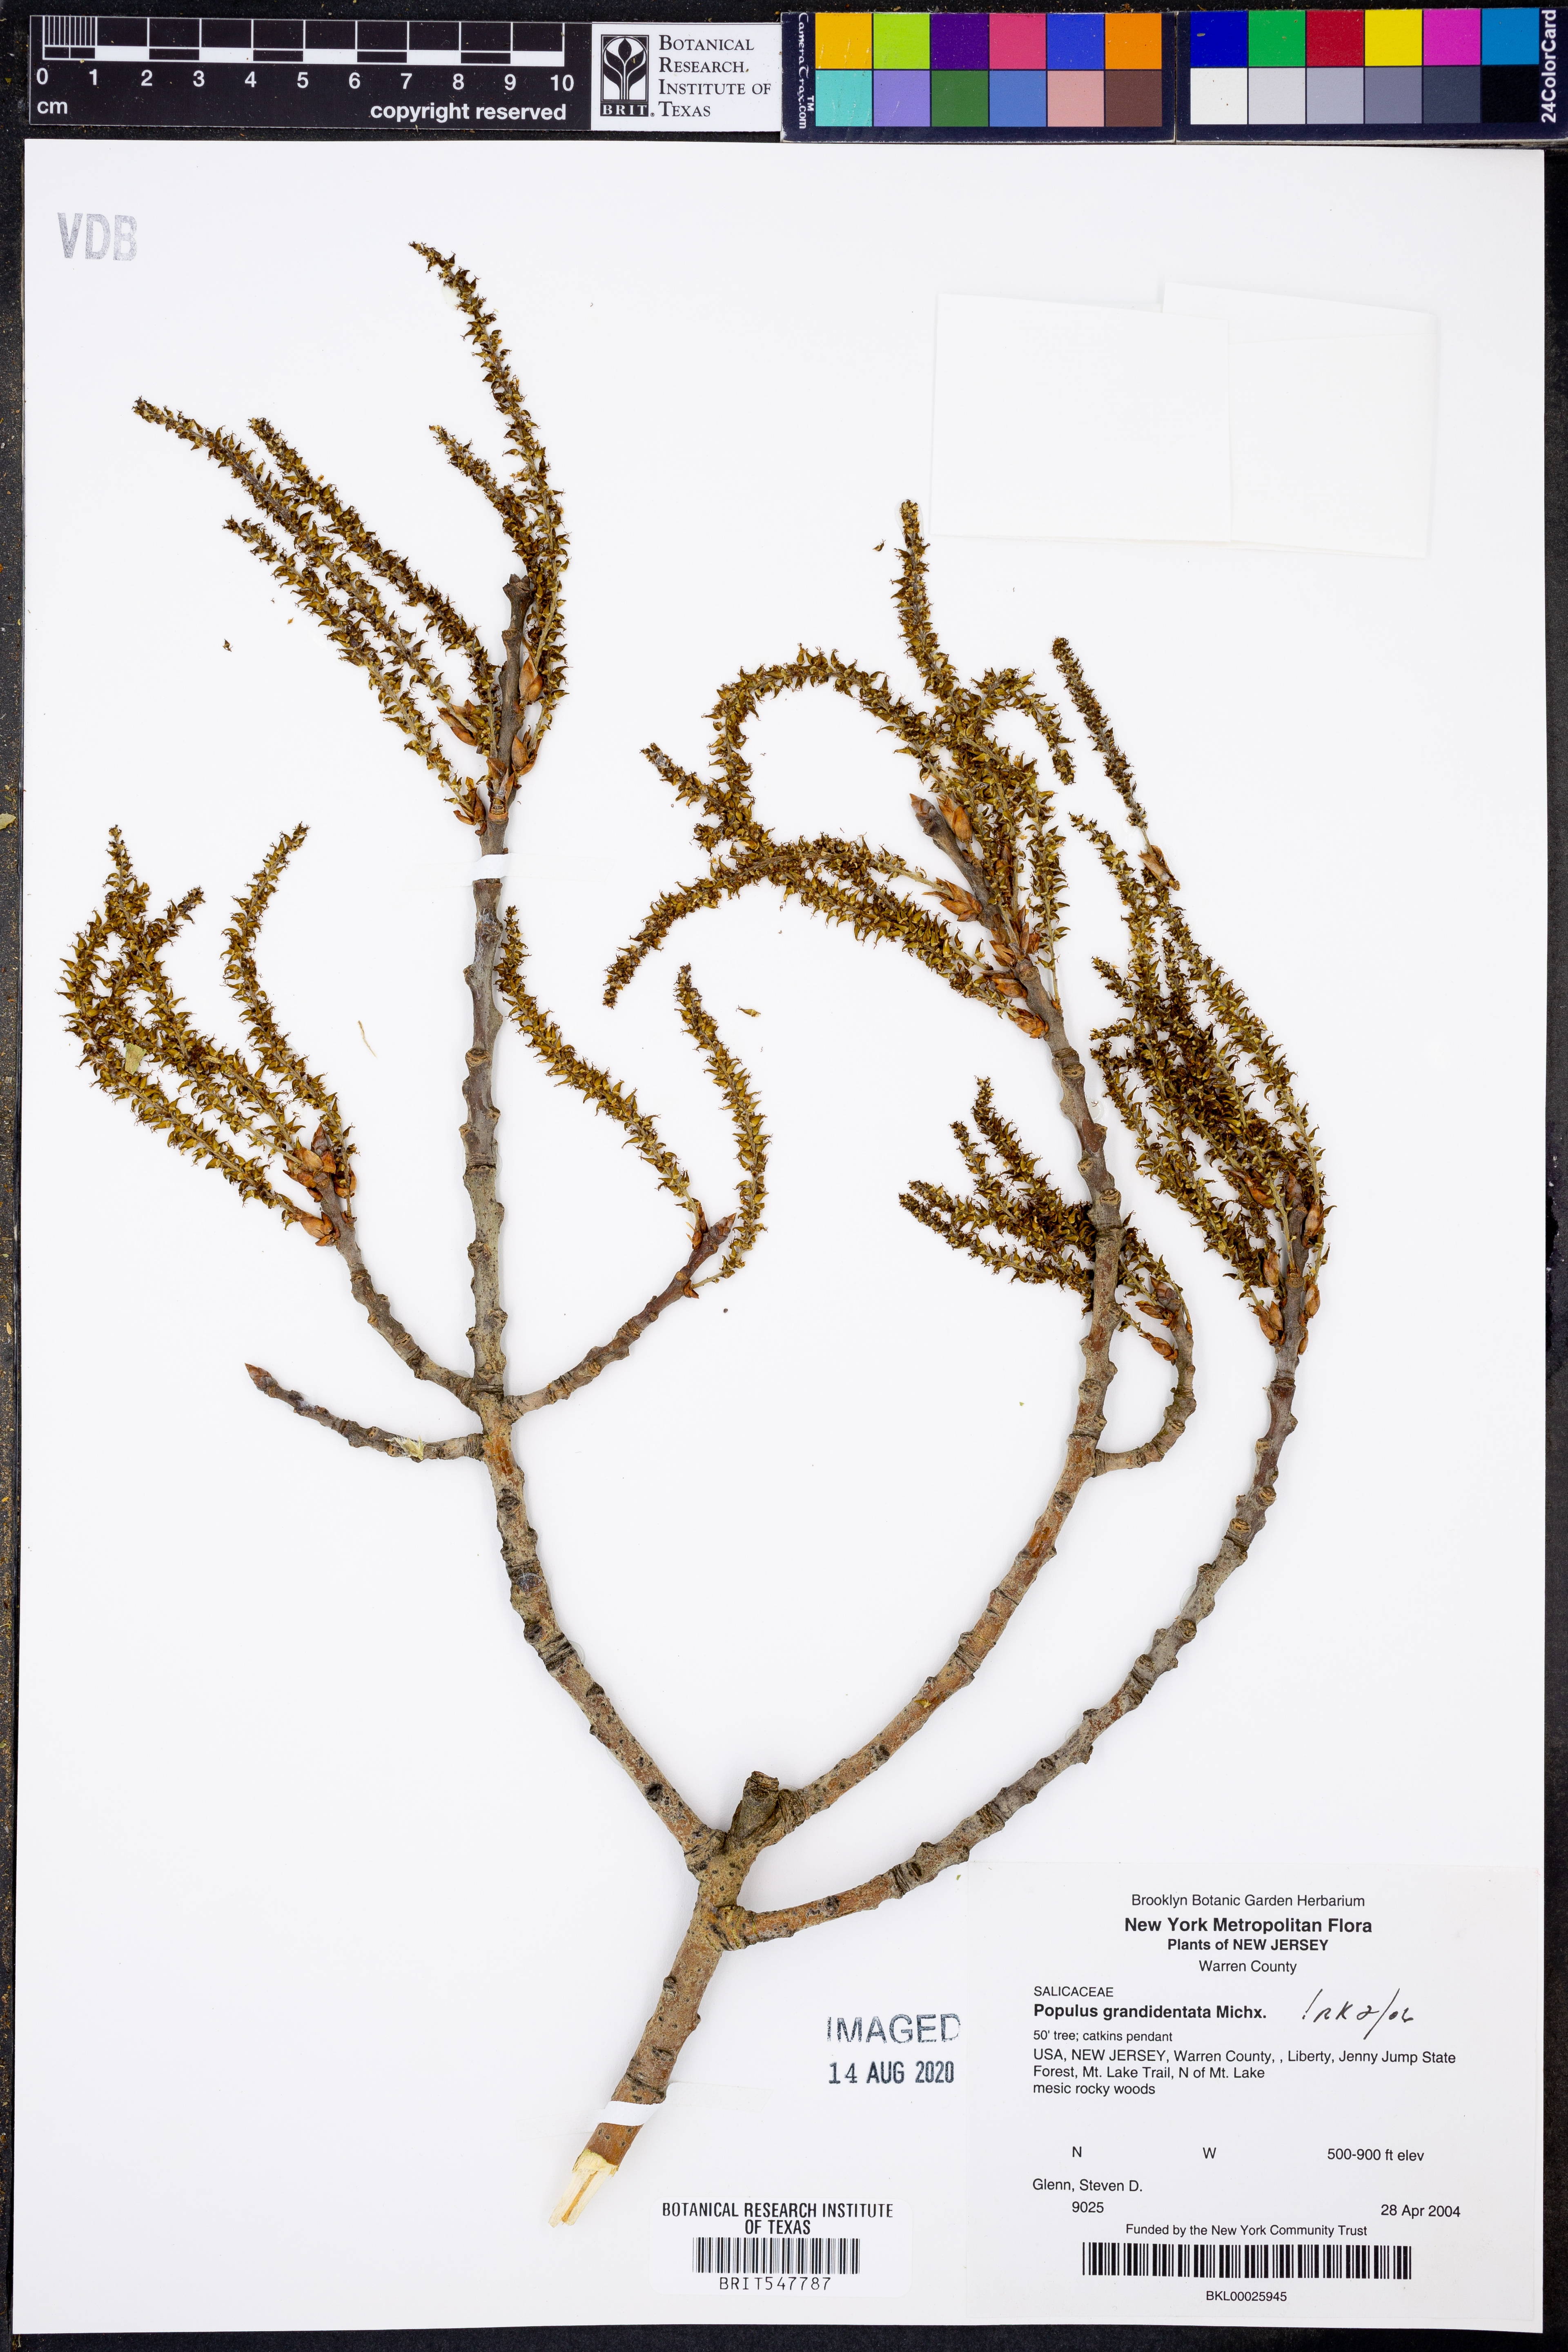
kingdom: Plantae
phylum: Tracheophyta
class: Magnoliopsida
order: Malpighiales
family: Salicaceae
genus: Populus
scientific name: Populus grandidentata
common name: Bigtooth aspen
